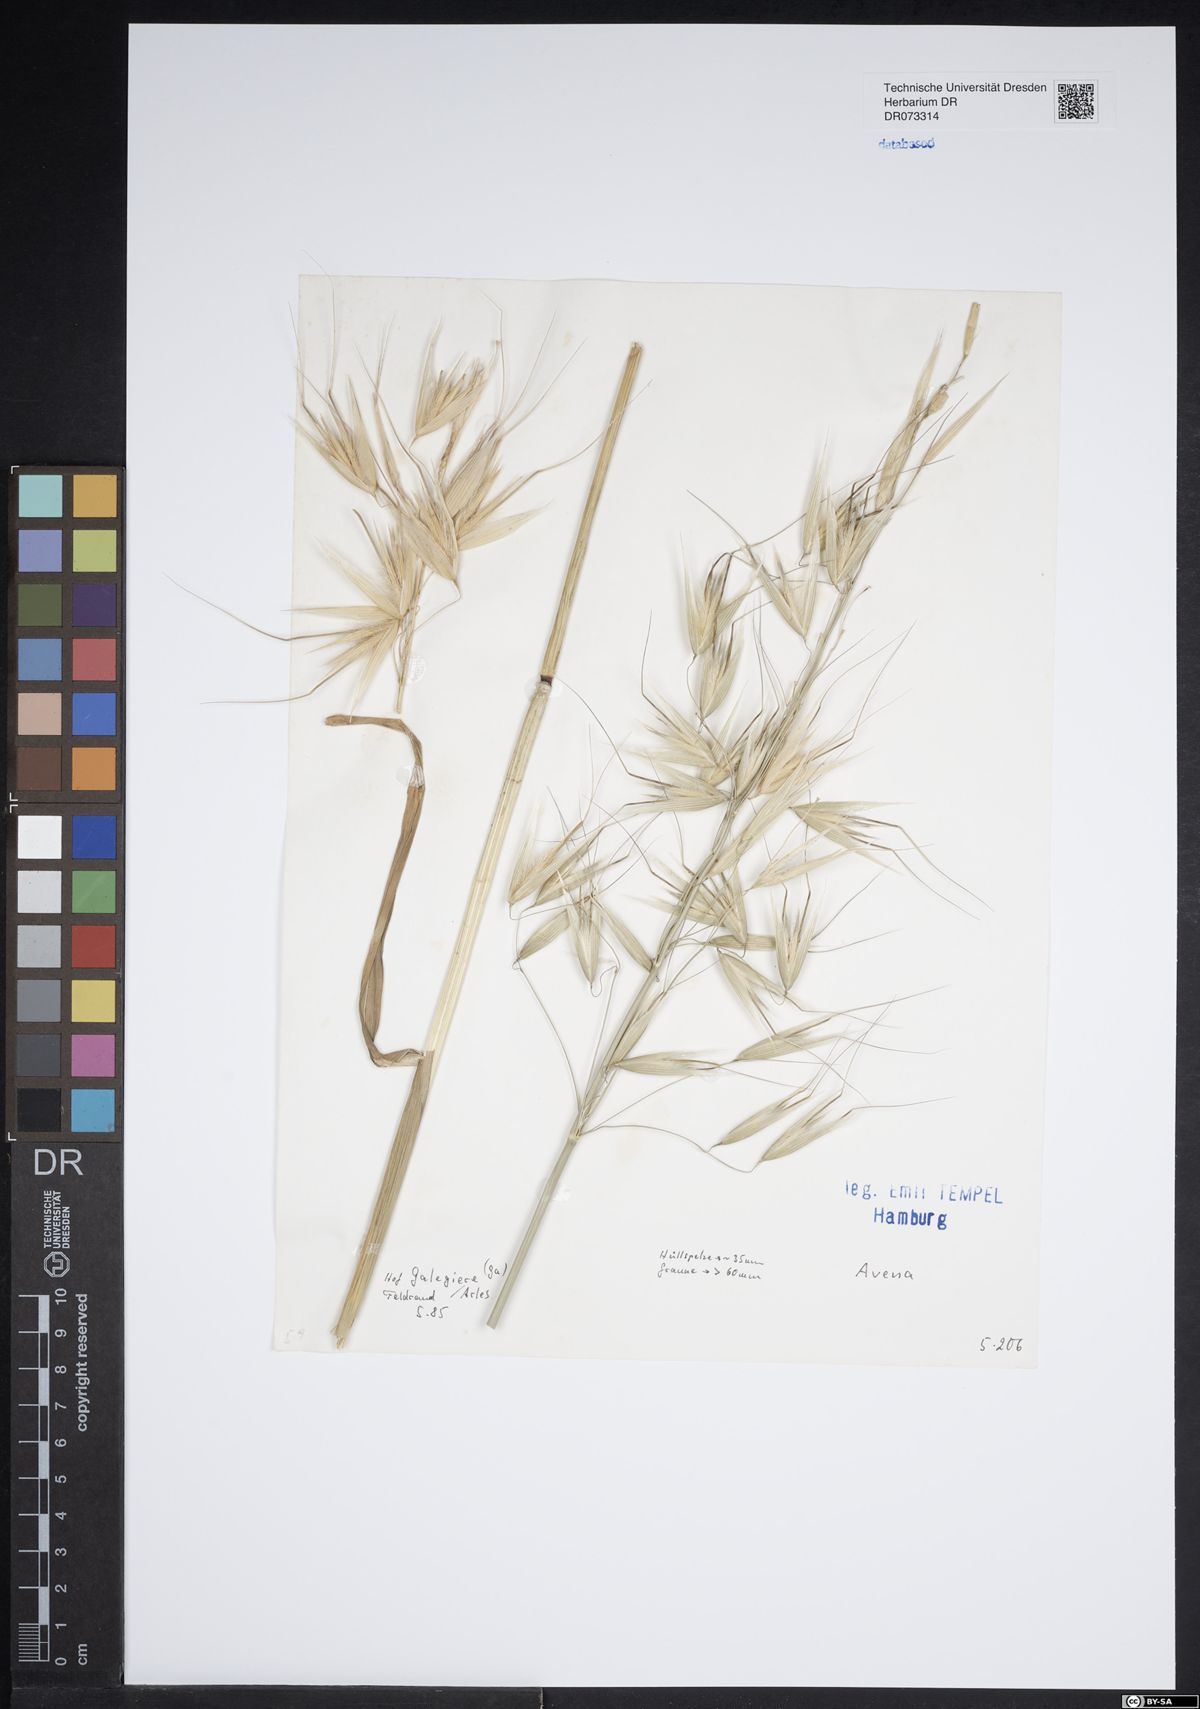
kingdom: Plantae
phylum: Tracheophyta
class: Liliopsida
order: Poales
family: Poaceae
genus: Avena
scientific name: Avena
